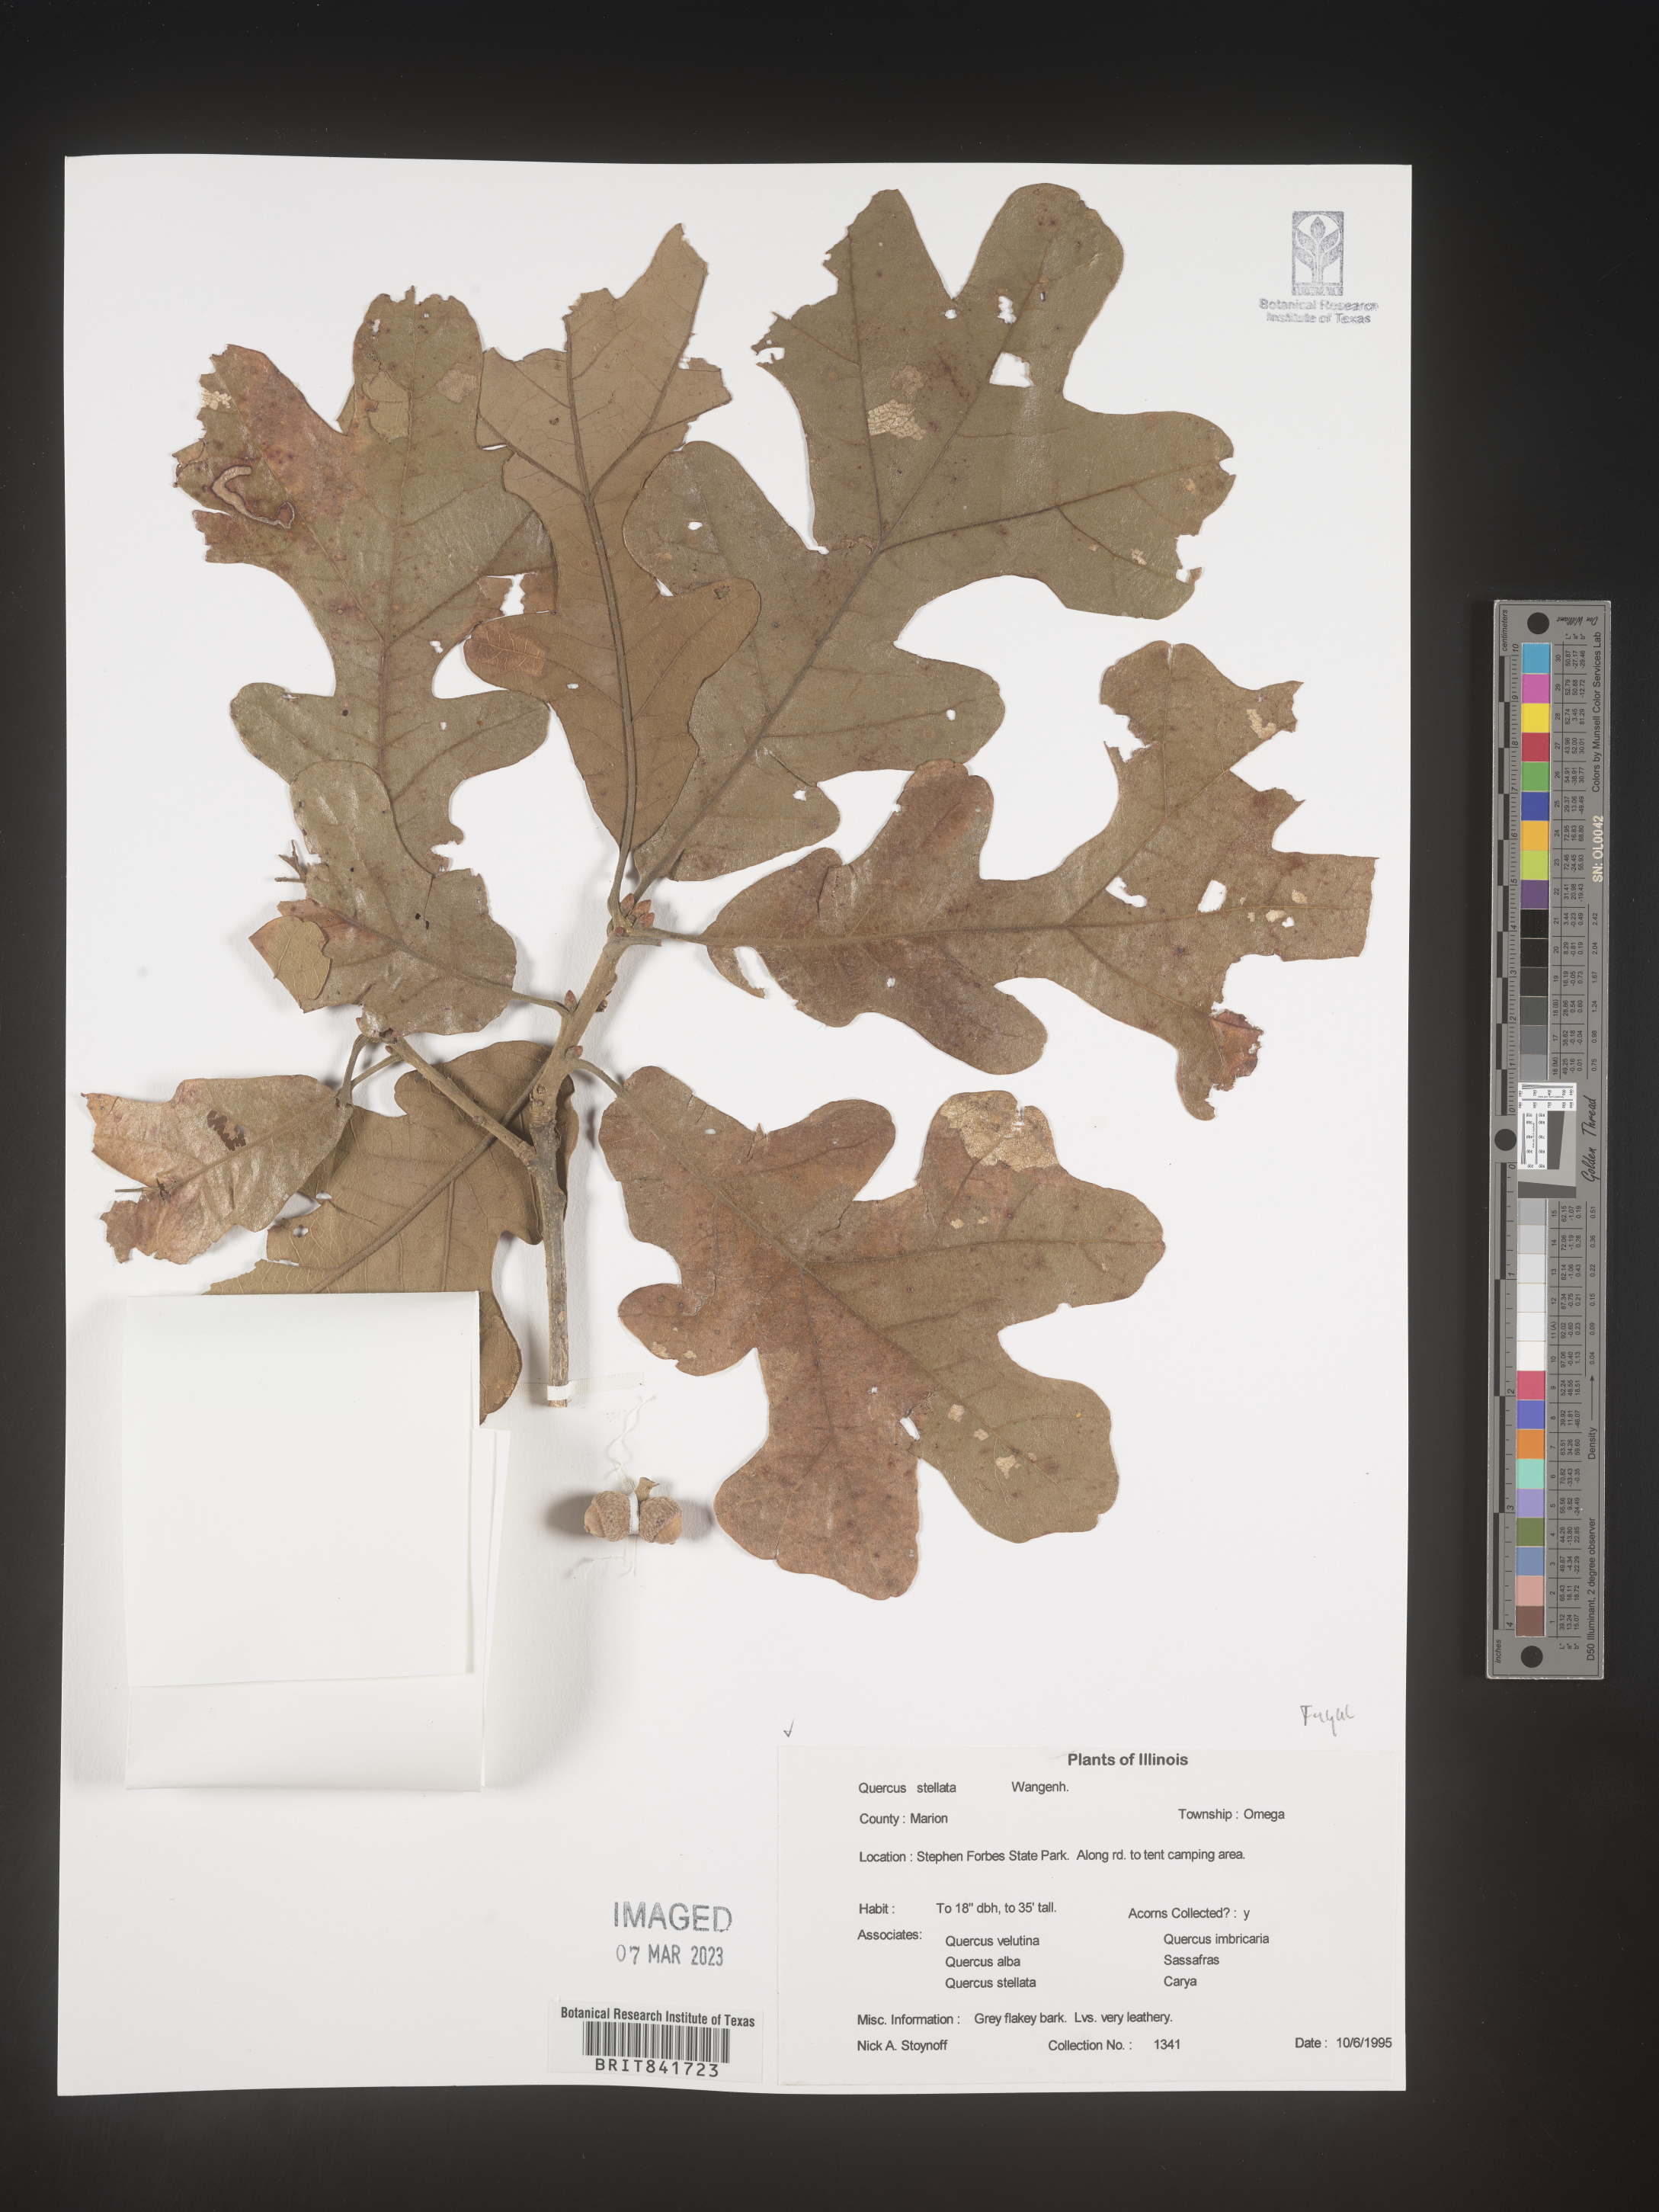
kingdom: Plantae
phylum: Tracheophyta
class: Magnoliopsida
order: Fagales
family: Fagaceae
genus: Quercus
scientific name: Quercus stellata
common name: Post oak
